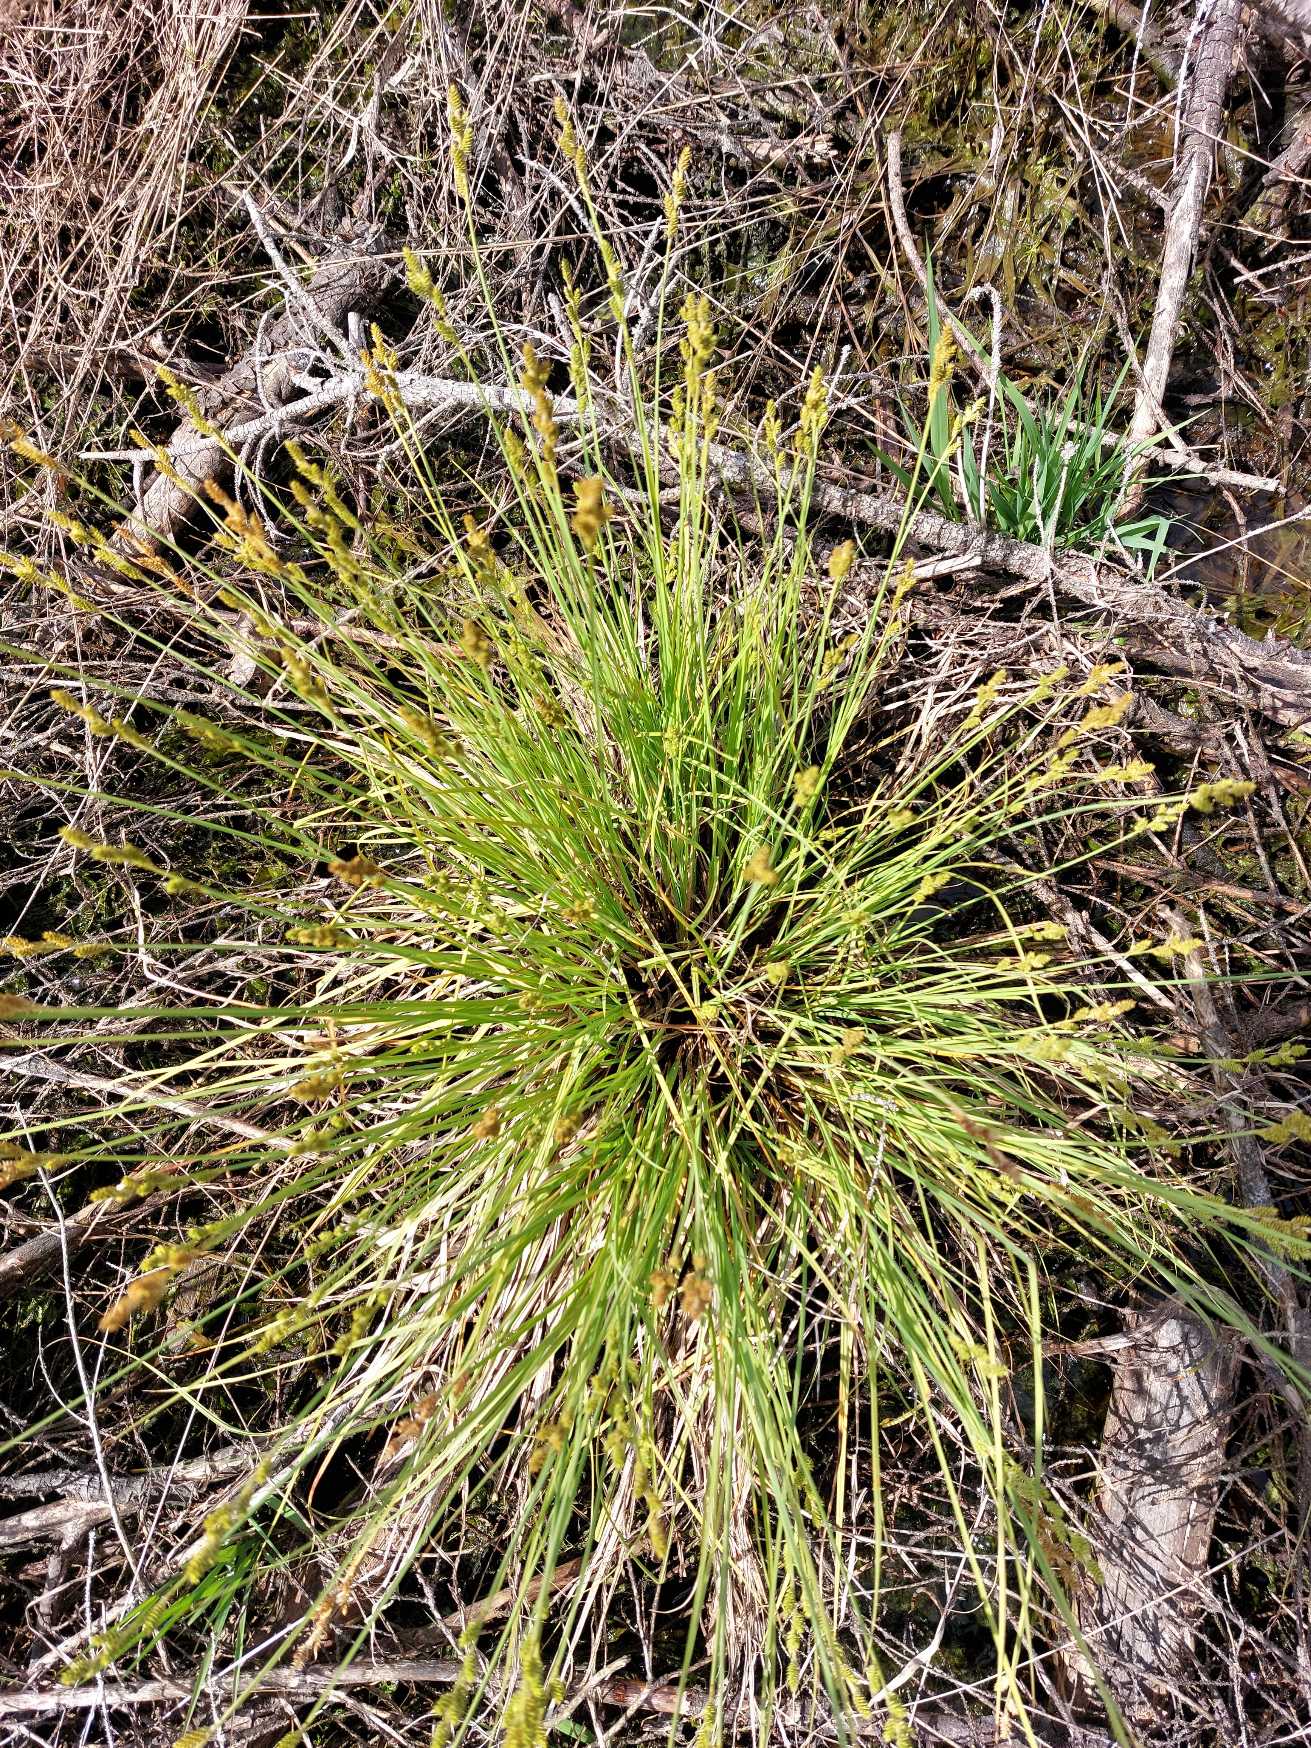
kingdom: Plantae
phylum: Tracheophyta
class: Liliopsida
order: Poales
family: Cyperaceae
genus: Carex
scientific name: Carex canescens
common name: Grå star
